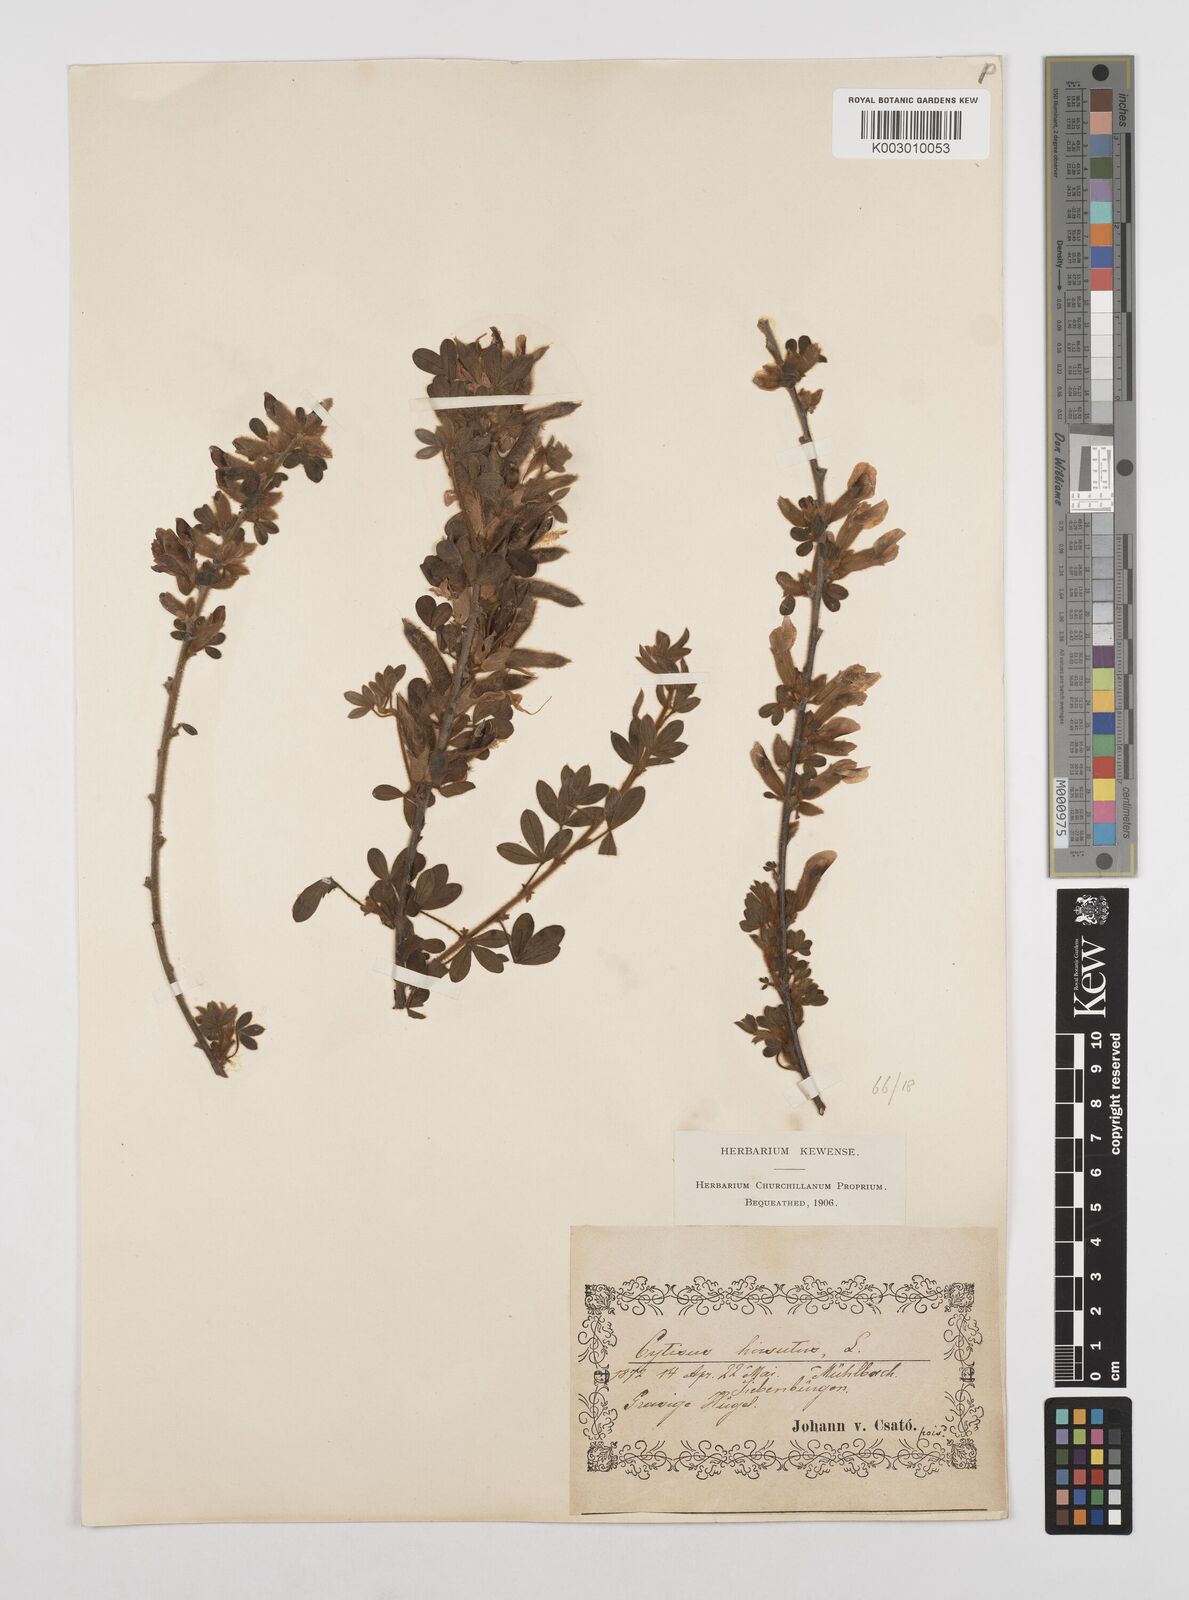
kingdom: Plantae
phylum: Tracheophyta
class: Magnoliopsida
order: Fabales
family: Fabaceae
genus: Chamaecytisus
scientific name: Chamaecytisus hirsutus
